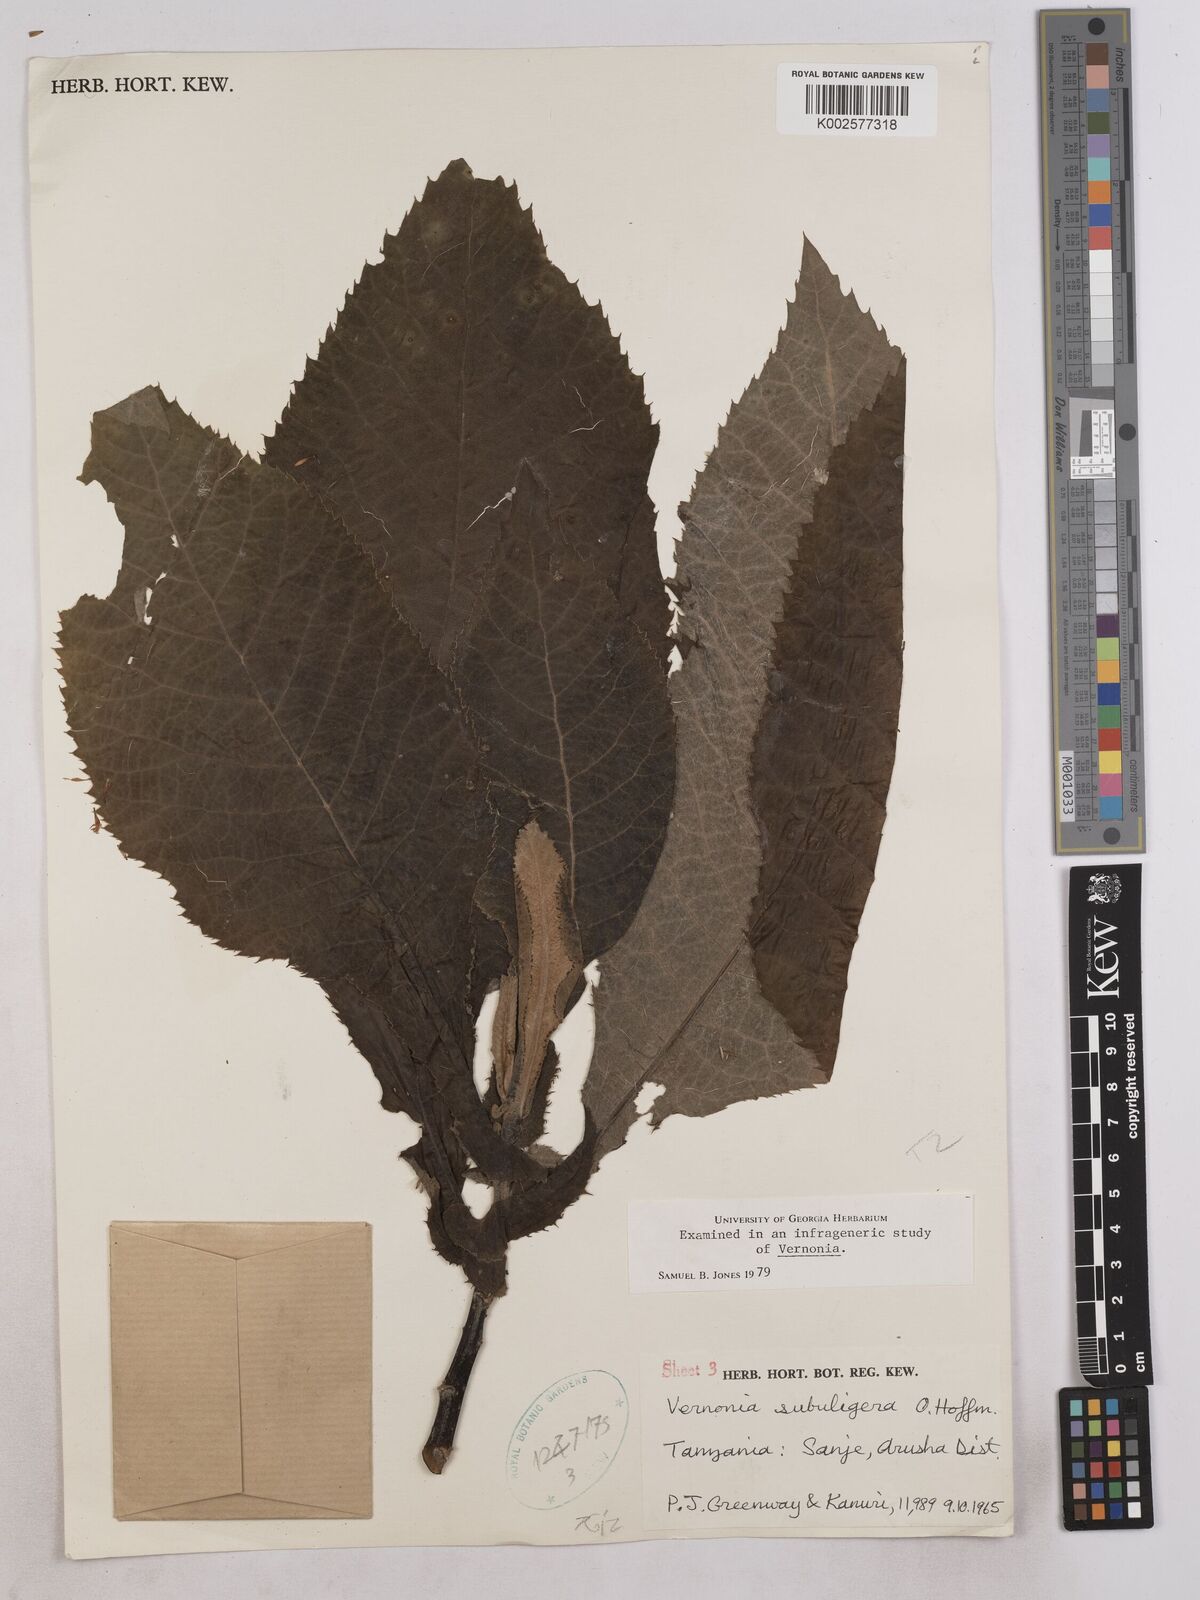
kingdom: Plantae
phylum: Tracheophyta
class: Magnoliopsida
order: Asterales
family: Asteraceae
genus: Gymnanthemum
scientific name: Gymnanthemum myrianthum
